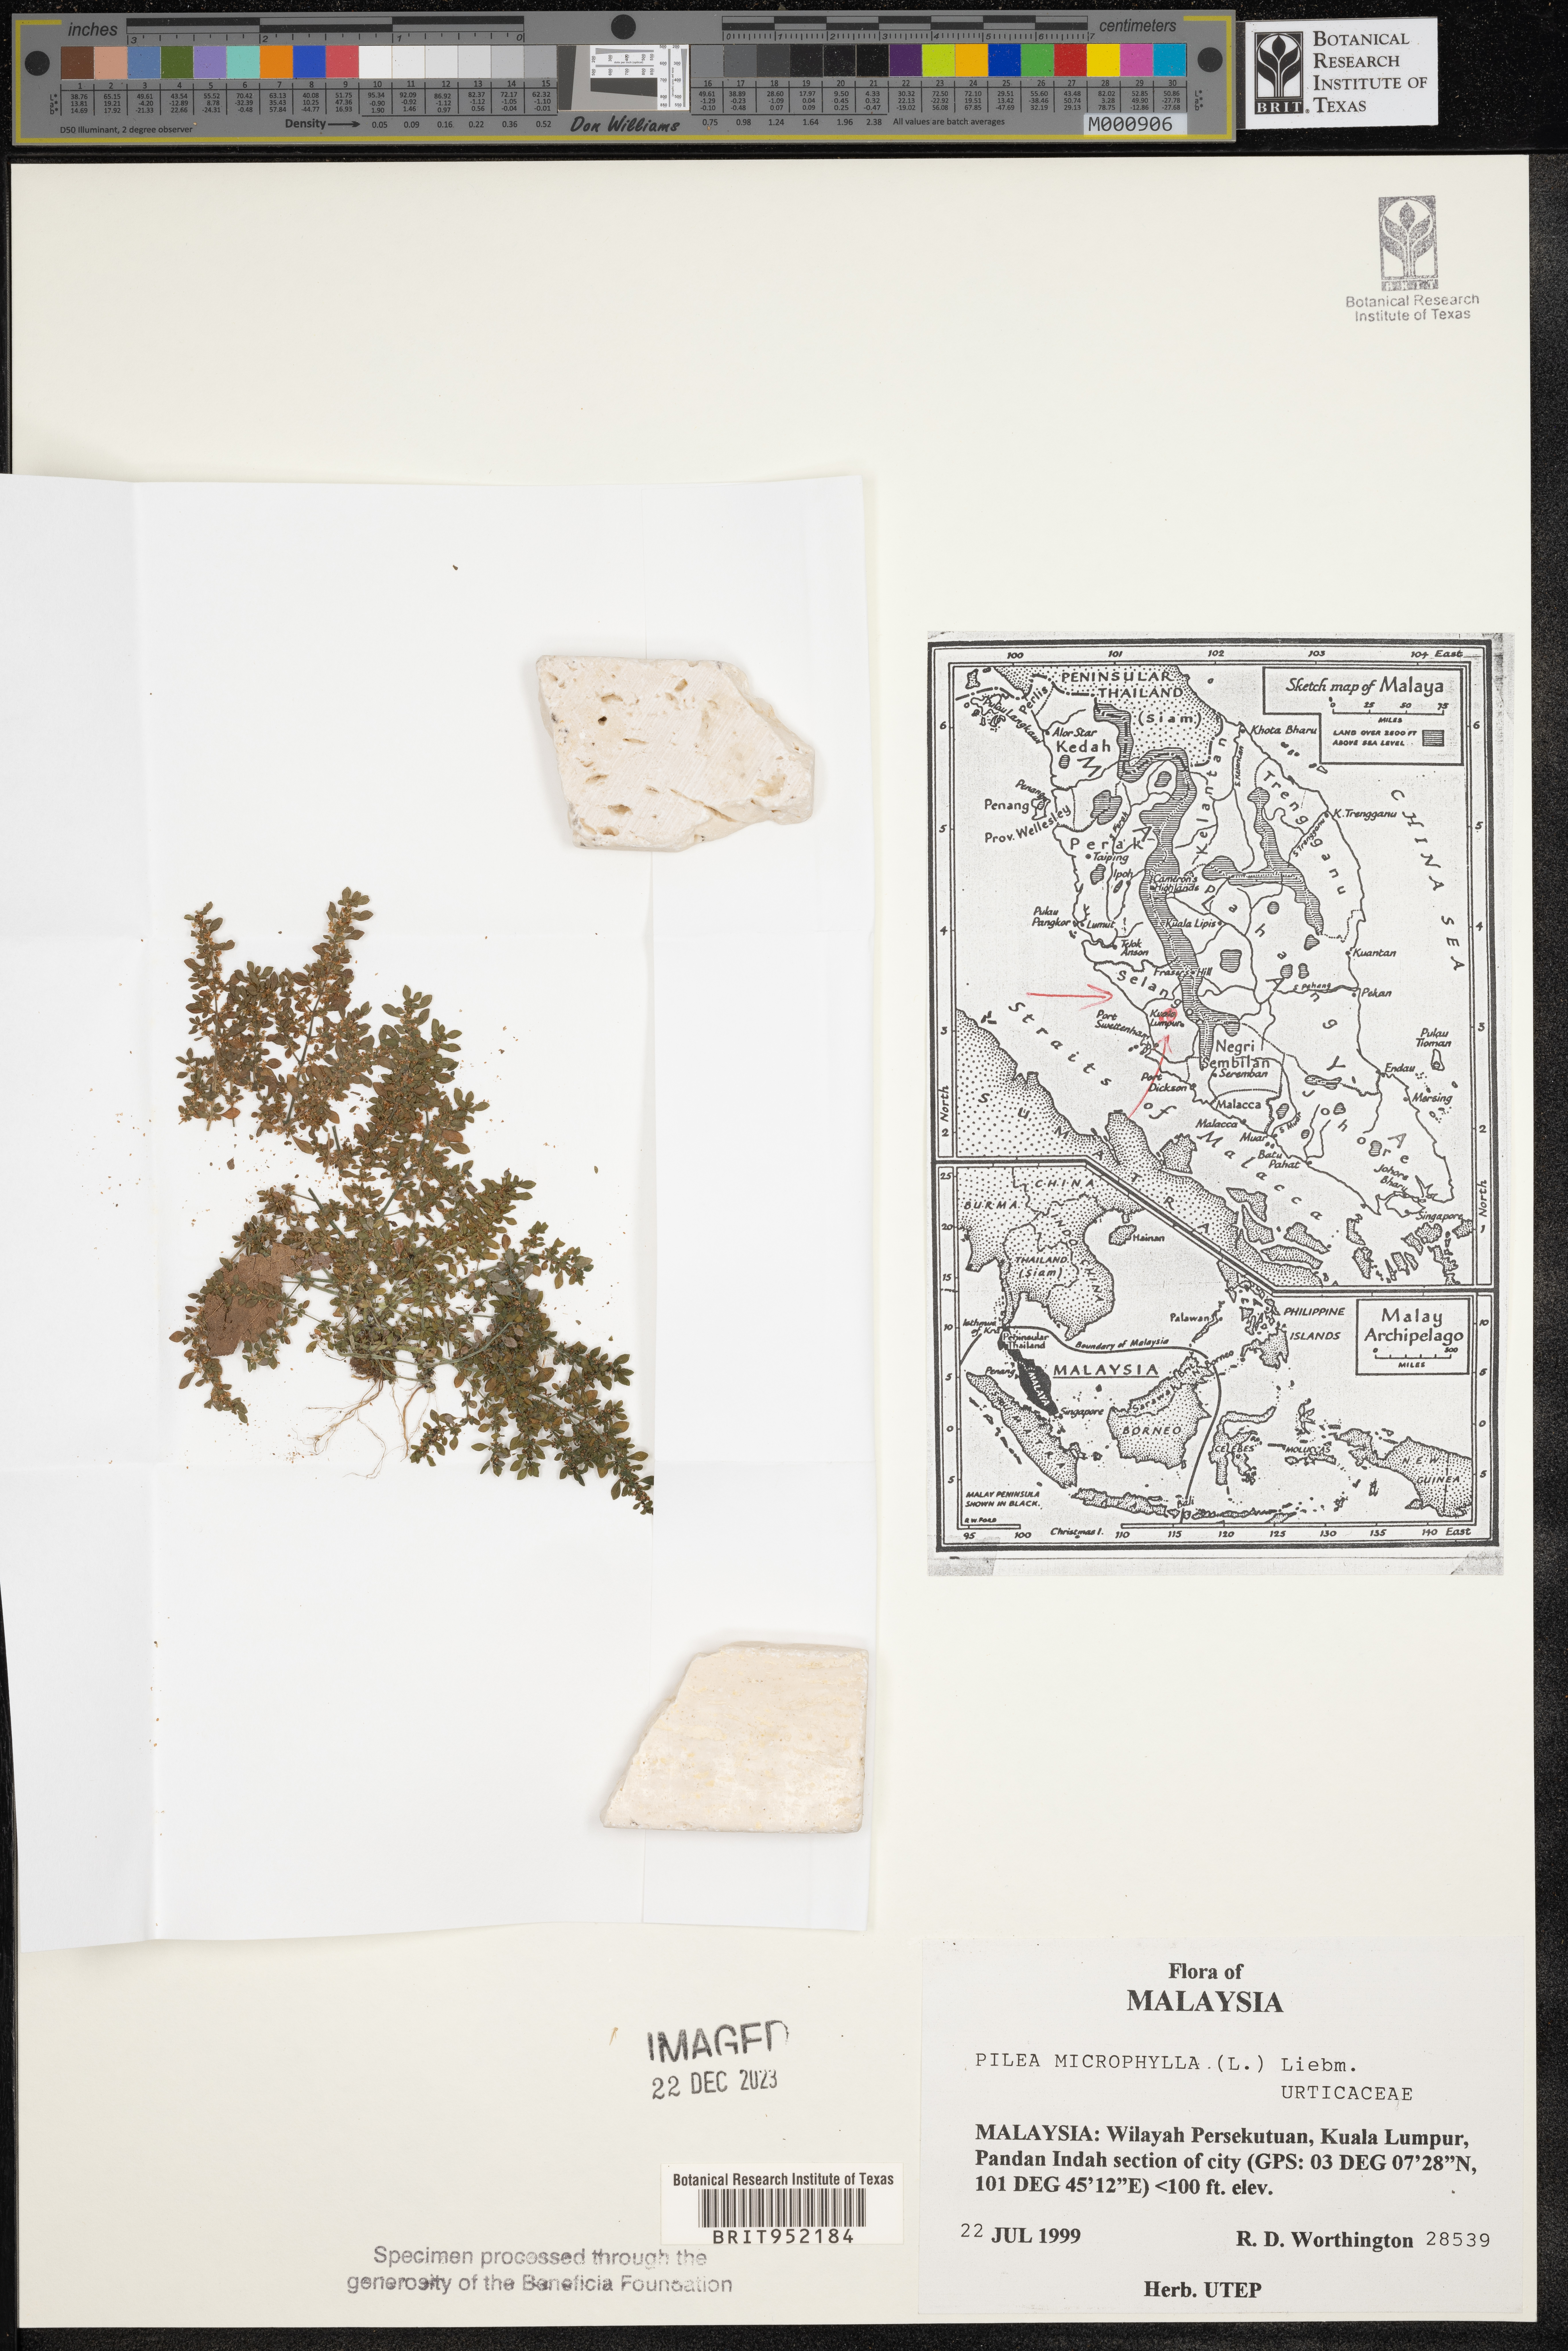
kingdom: Plantae
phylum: Tracheophyta
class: Magnoliopsida
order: Rosales
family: Urticaceae
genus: Pilea
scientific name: Pilea
